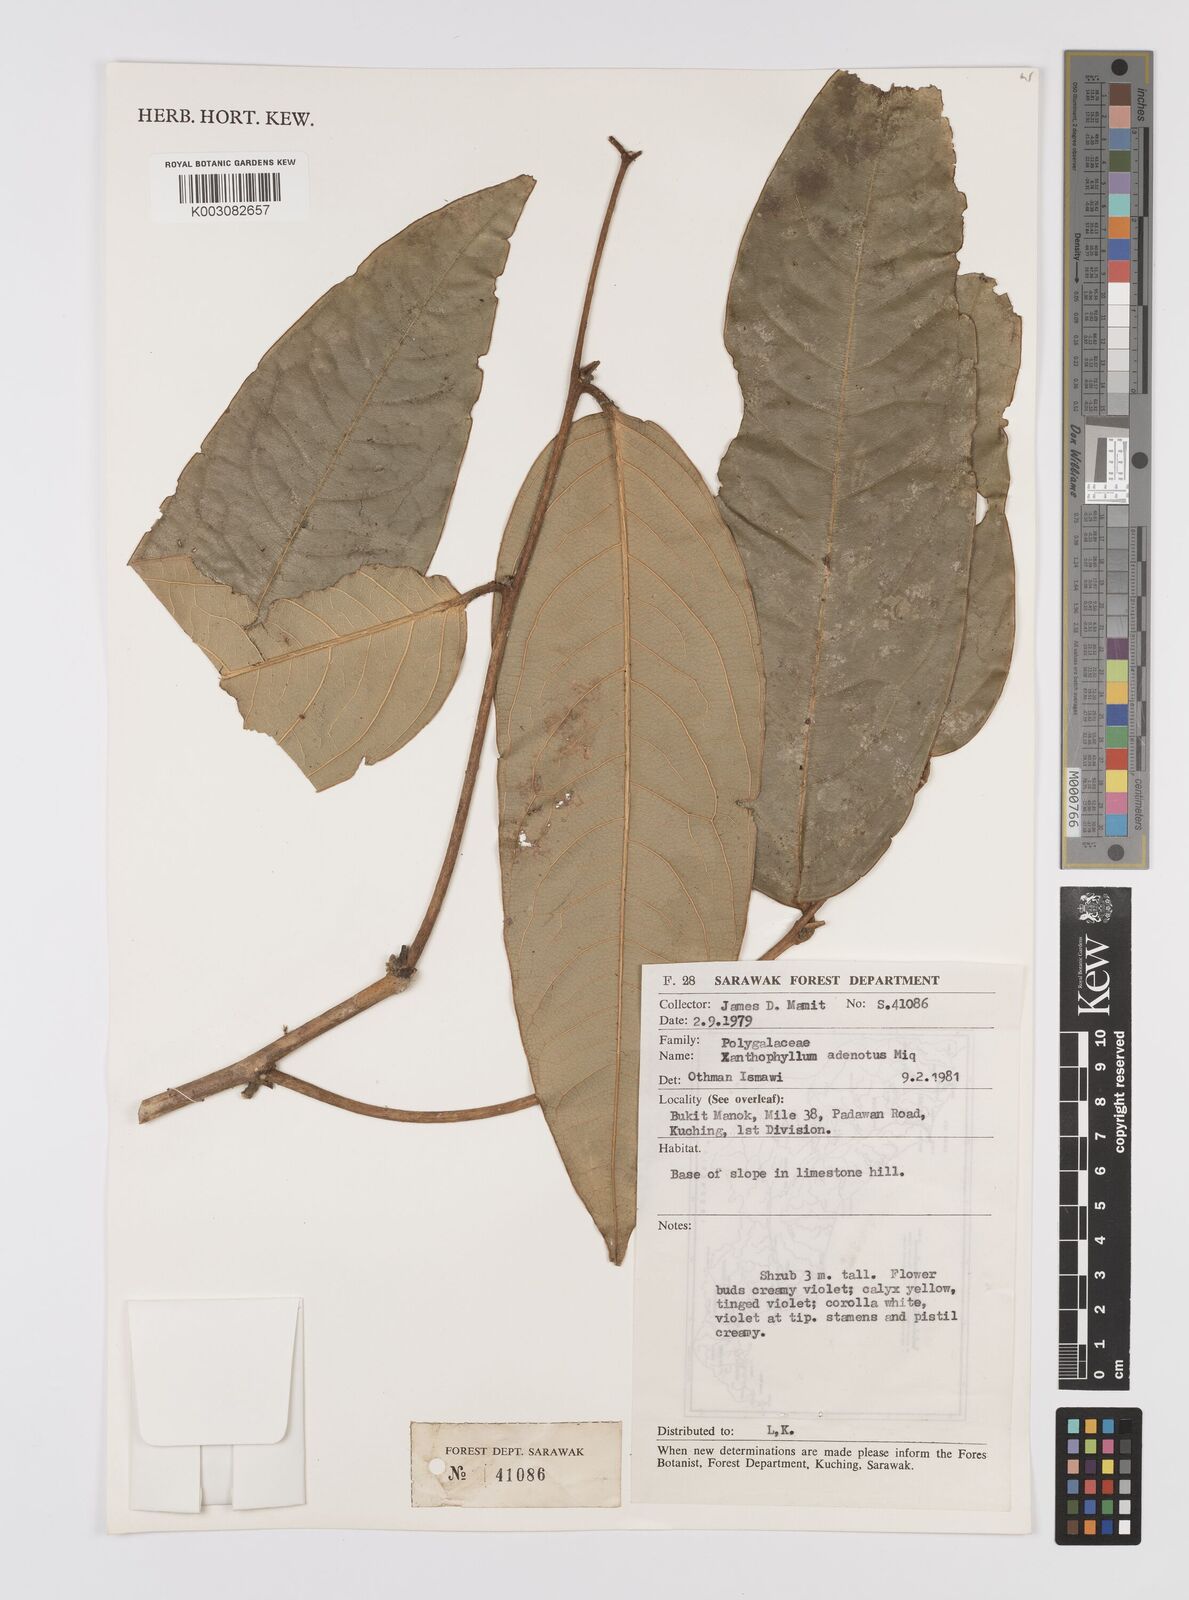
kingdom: Plantae
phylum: Tracheophyta
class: Magnoliopsida
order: Fabales
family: Polygalaceae
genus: Xanthophyllum
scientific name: Xanthophyllum adenotus
